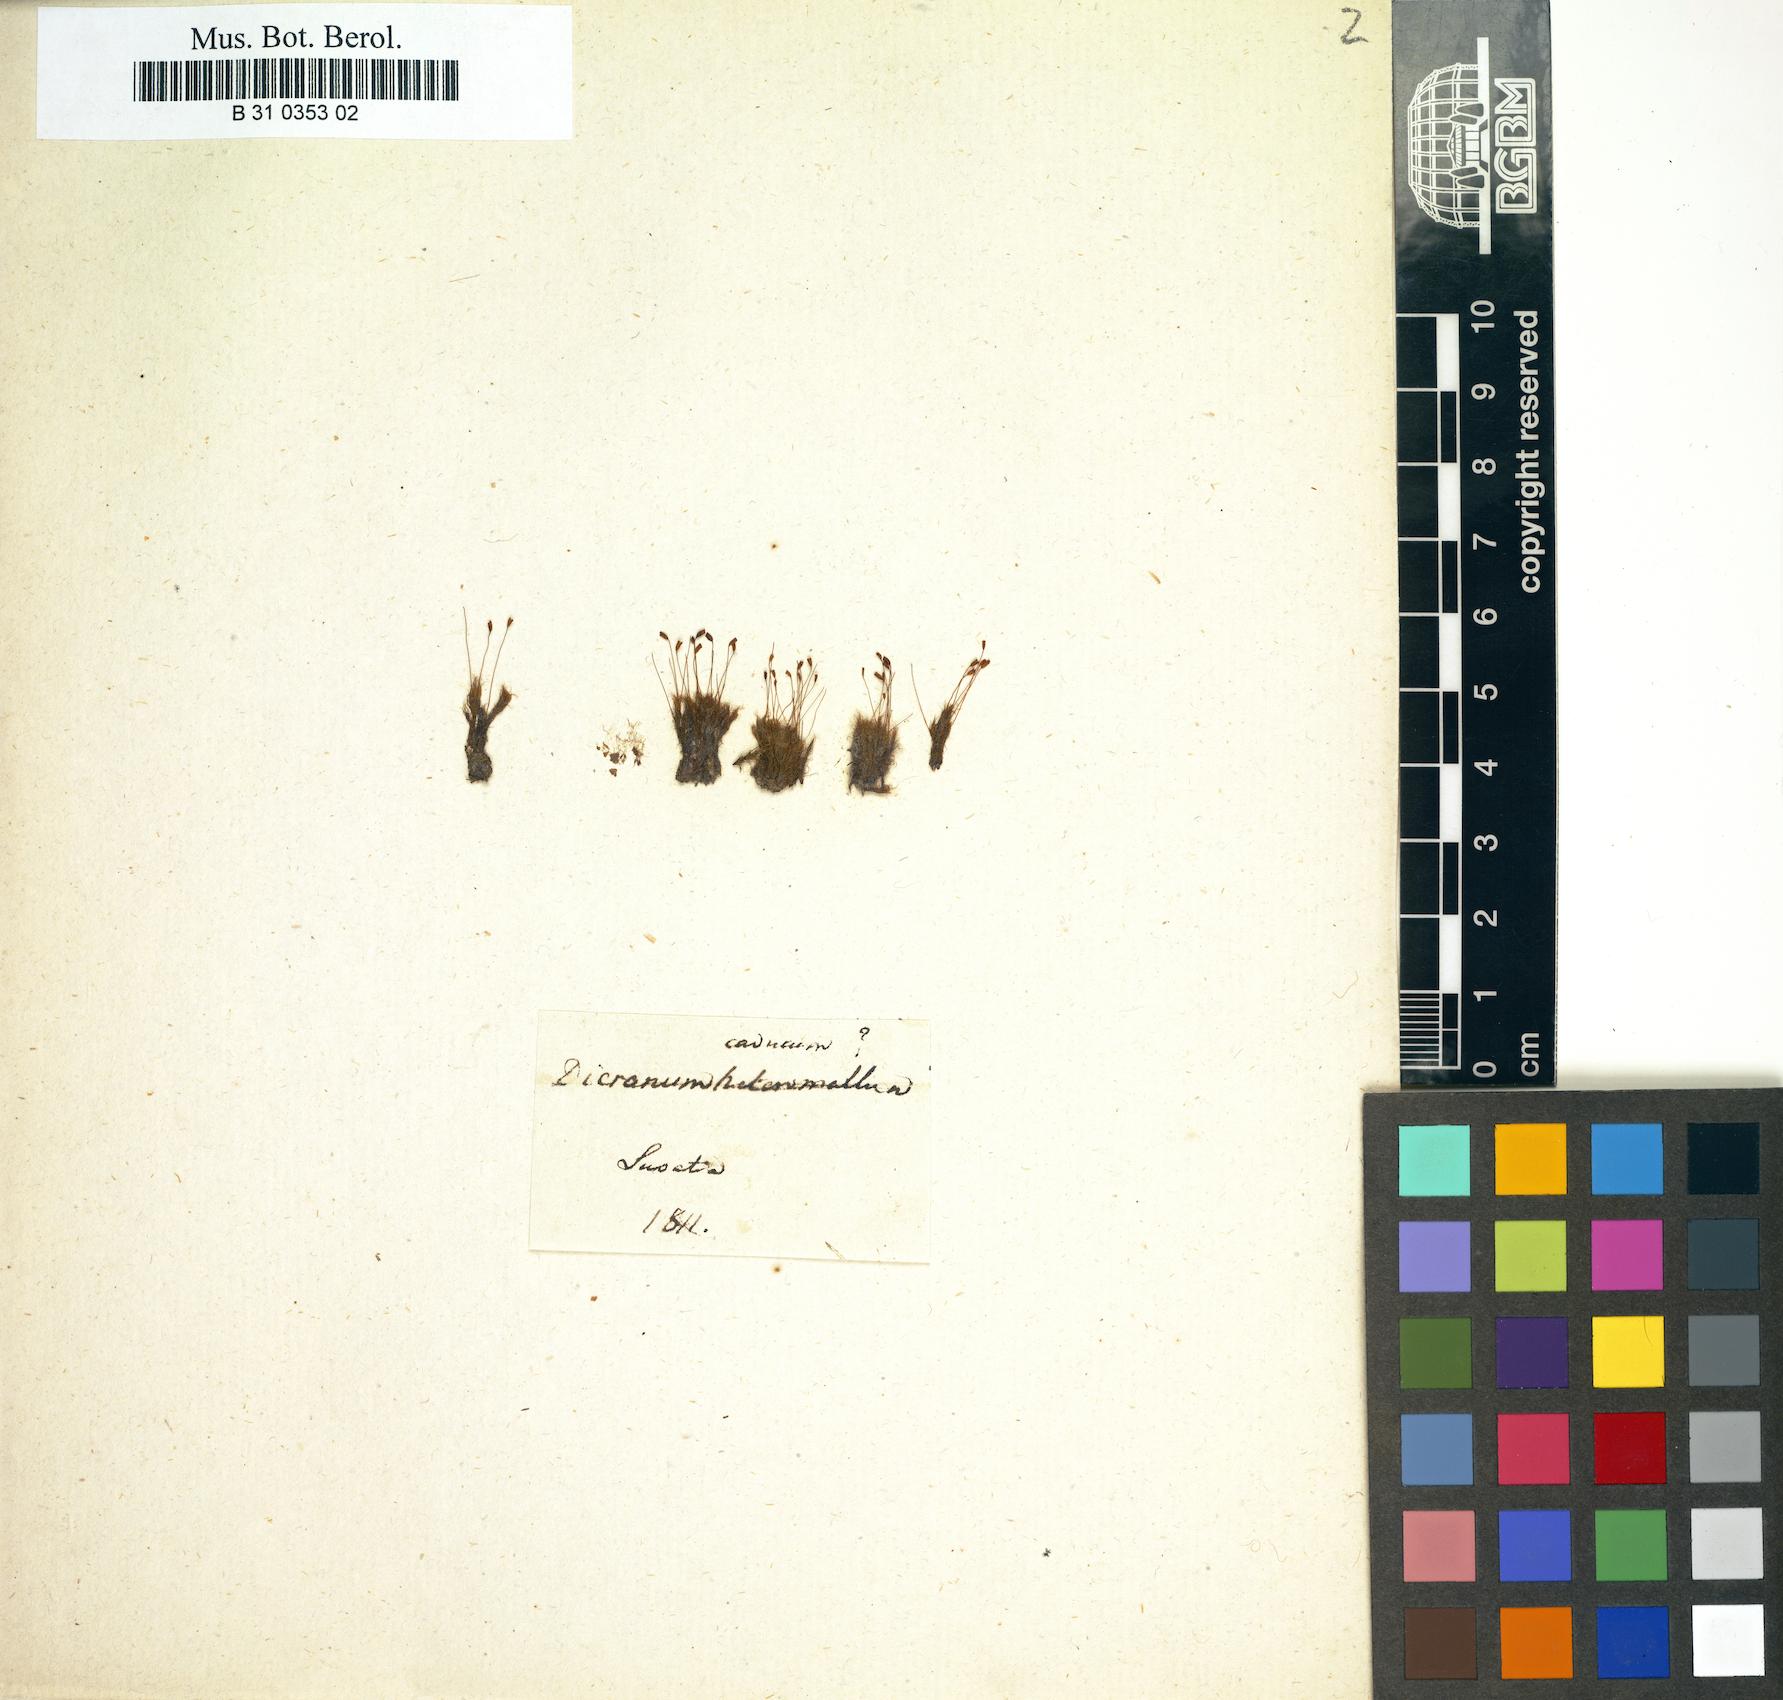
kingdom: Plantae
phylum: Bryophyta
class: Bryopsida
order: Dicranales
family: Dicranellaceae
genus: Dicranella
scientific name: Dicranella heteromalla
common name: Silky forklet moss
